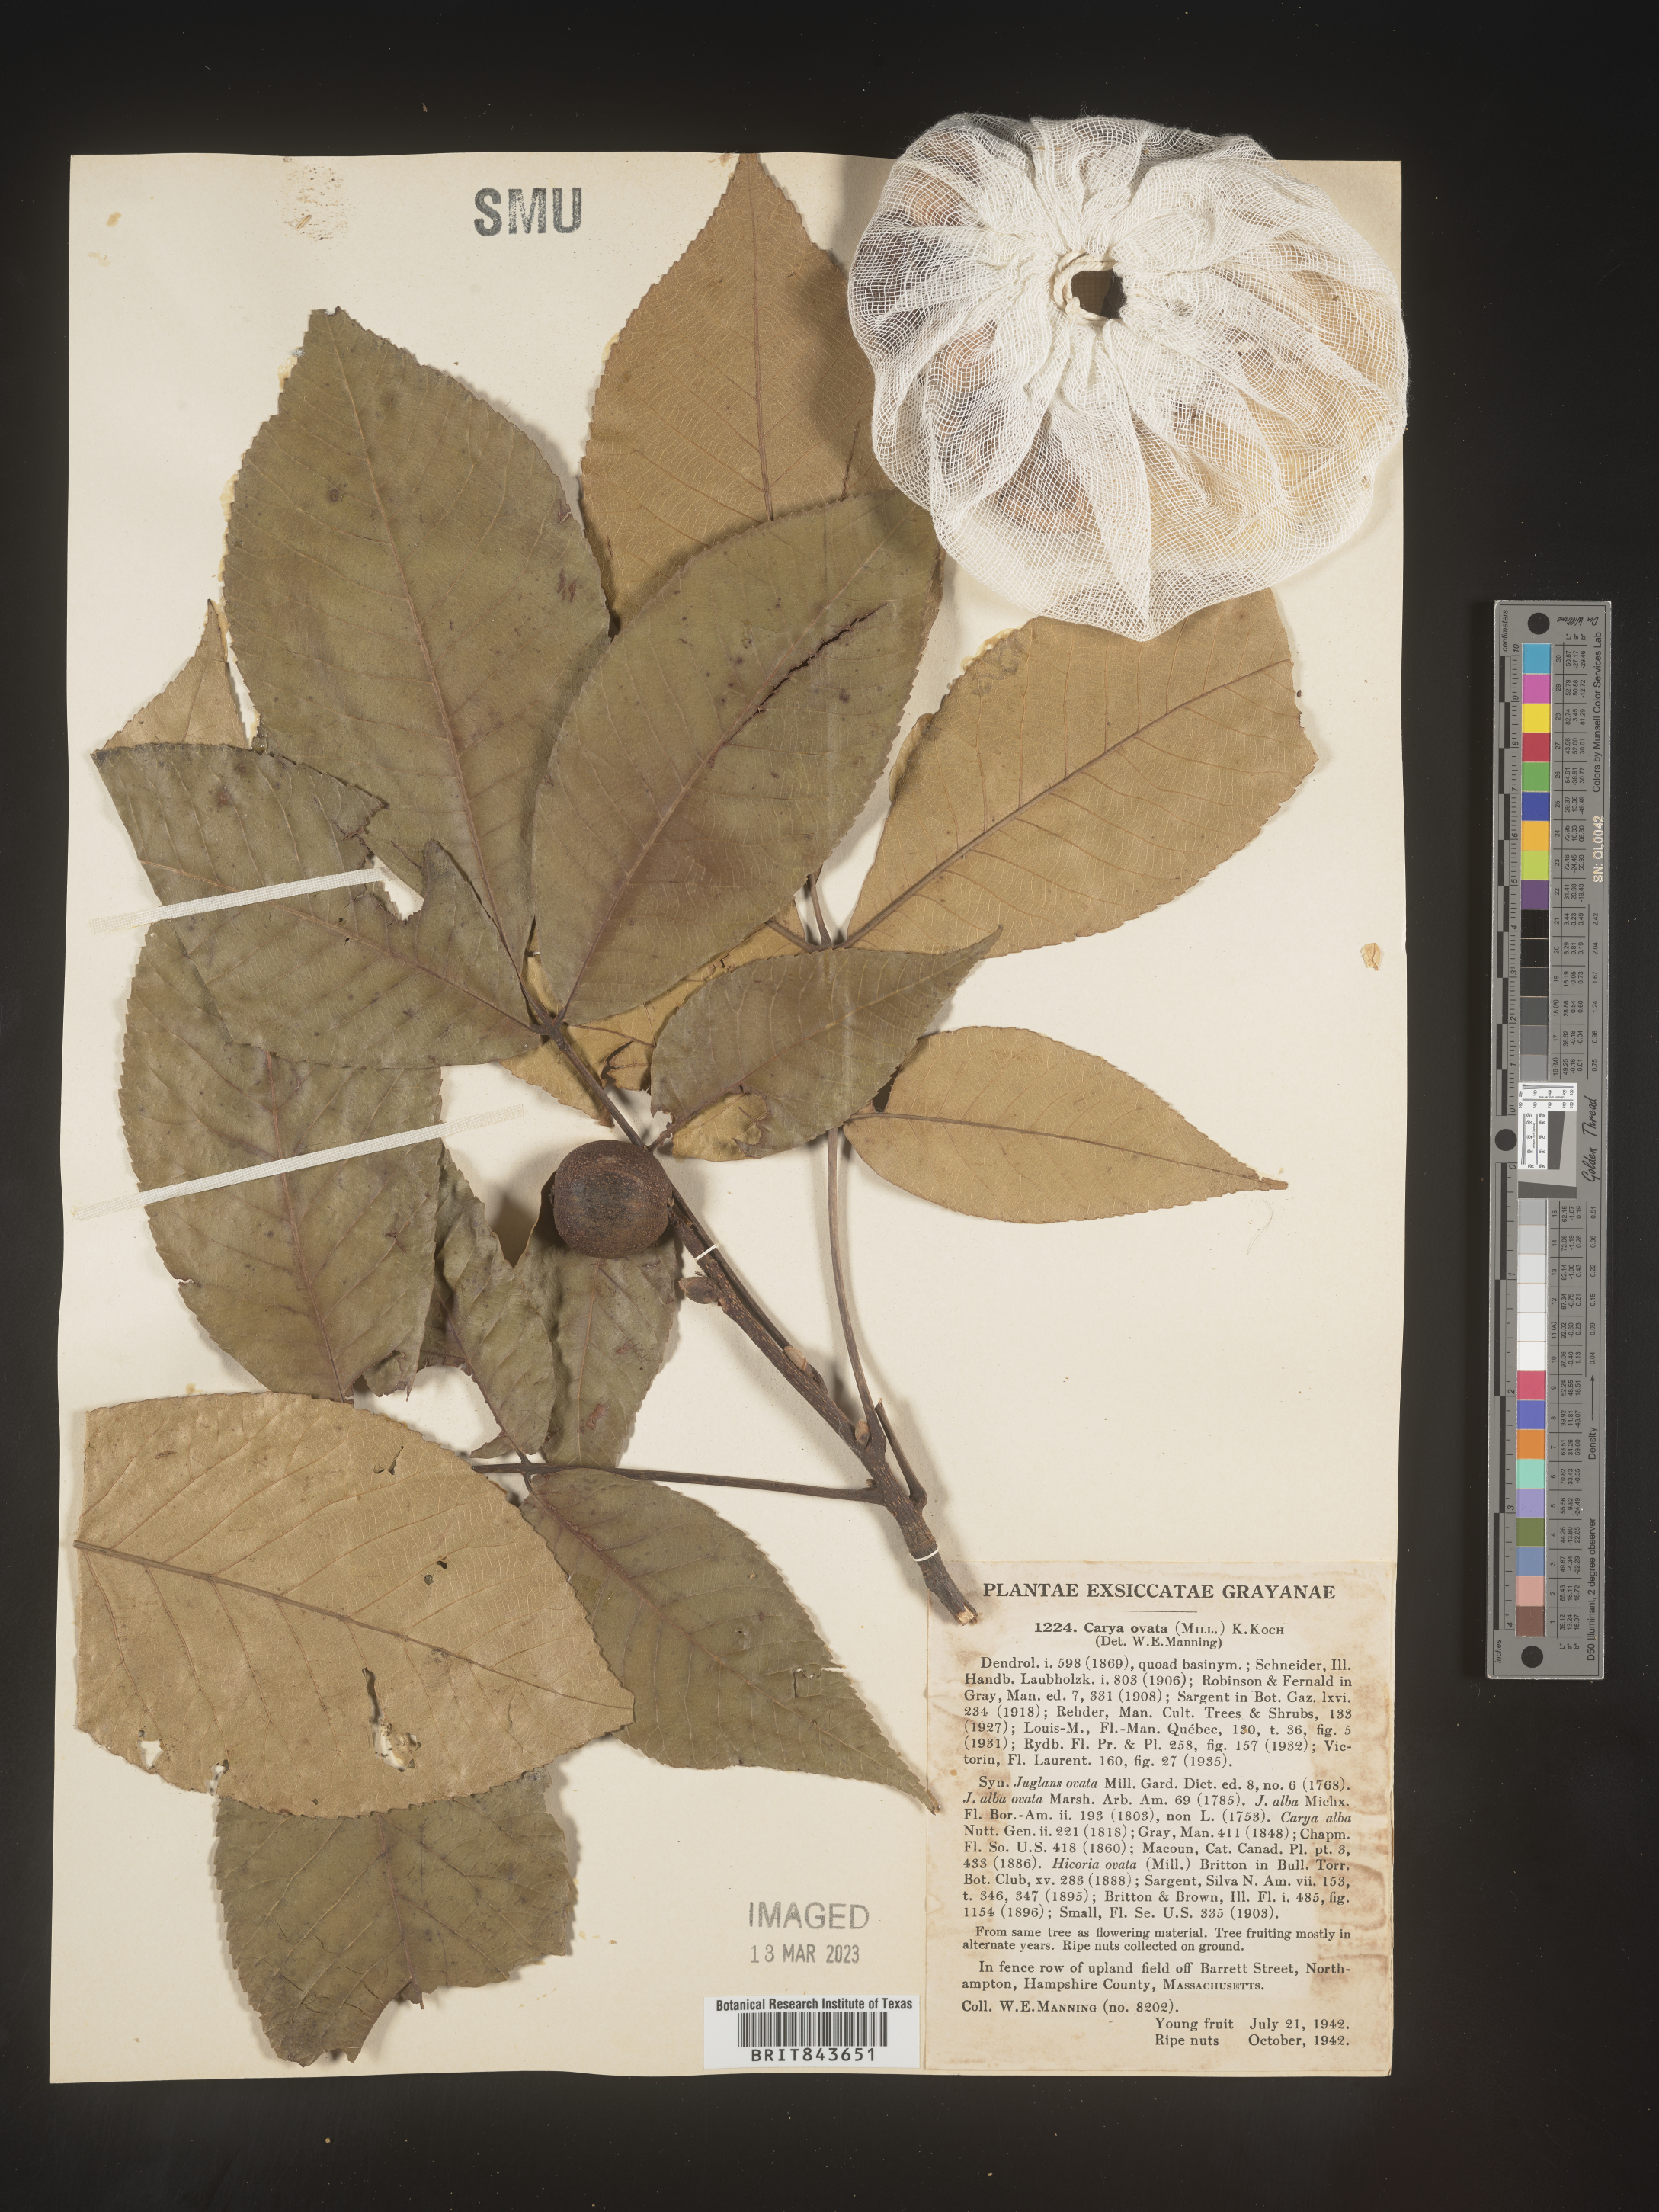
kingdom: Plantae
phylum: Tracheophyta
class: Magnoliopsida
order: Fagales
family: Juglandaceae
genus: Carya
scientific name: Carya ovata
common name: Shagbark hickory
